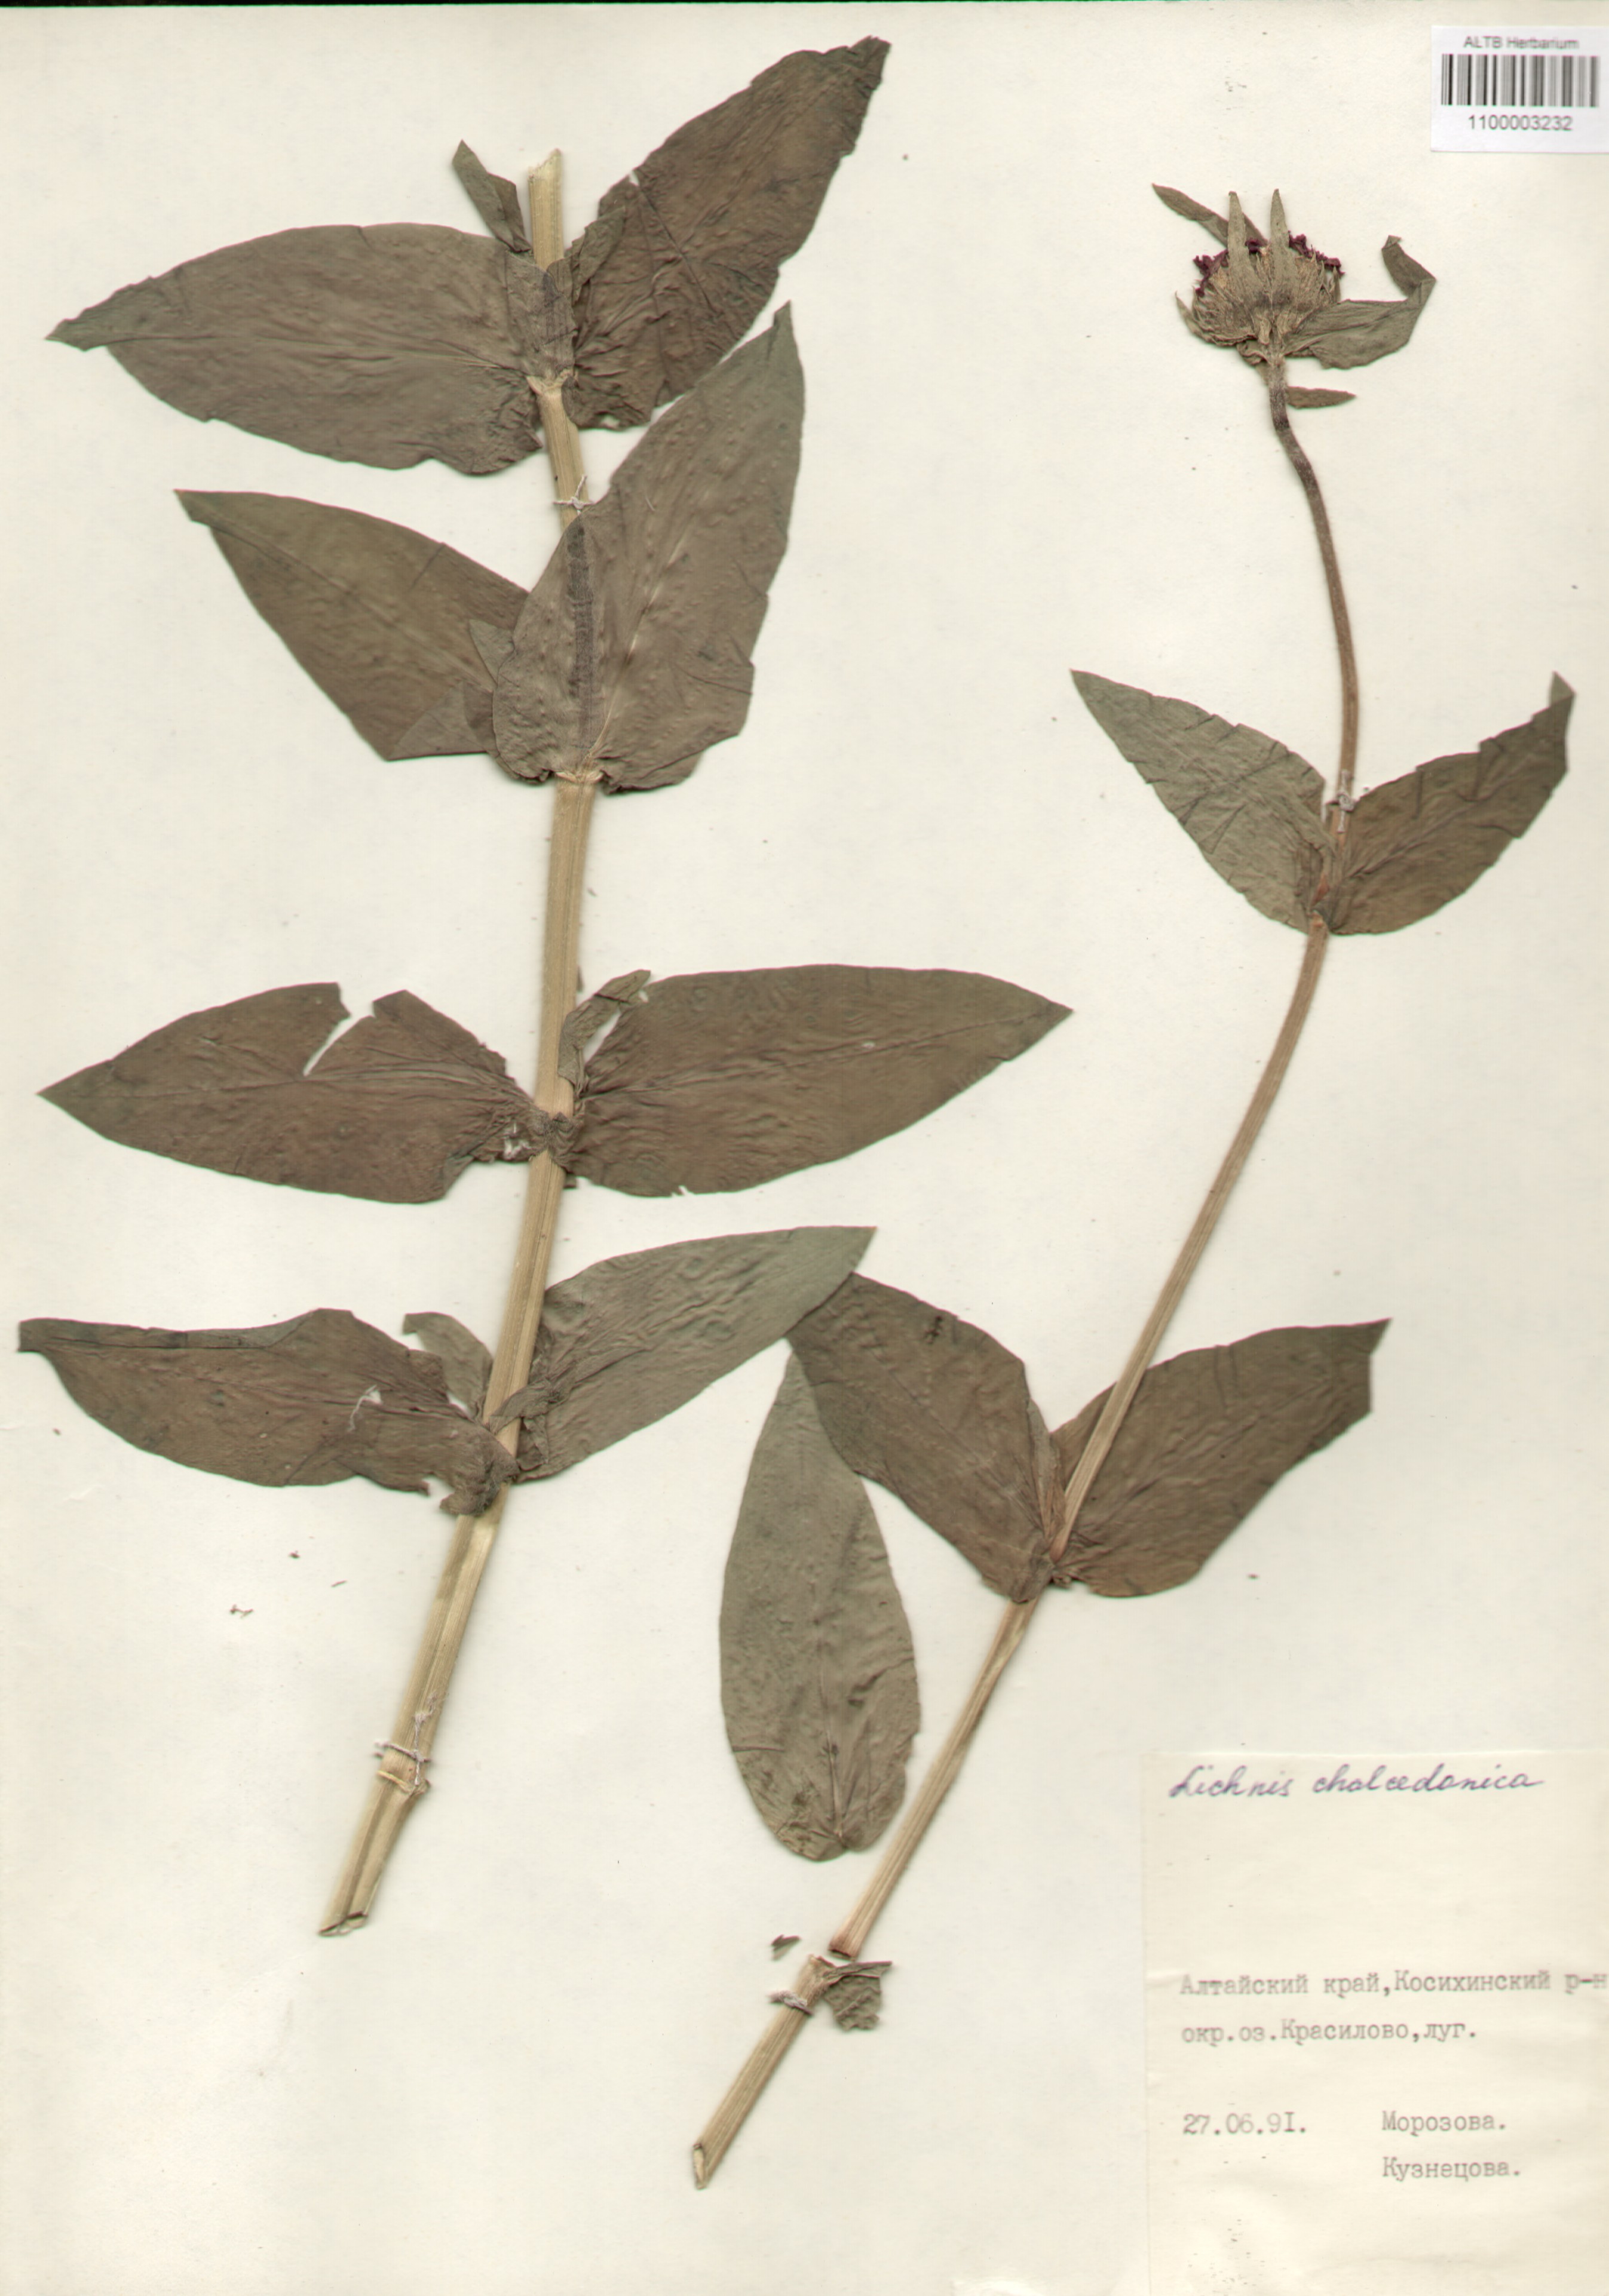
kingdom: Plantae
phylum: Tracheophyta
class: Magnoliopsida
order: Caryophyllales
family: Caryophyllaceae
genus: Silene
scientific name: Silene chalcedonica
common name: Maltese-cross
